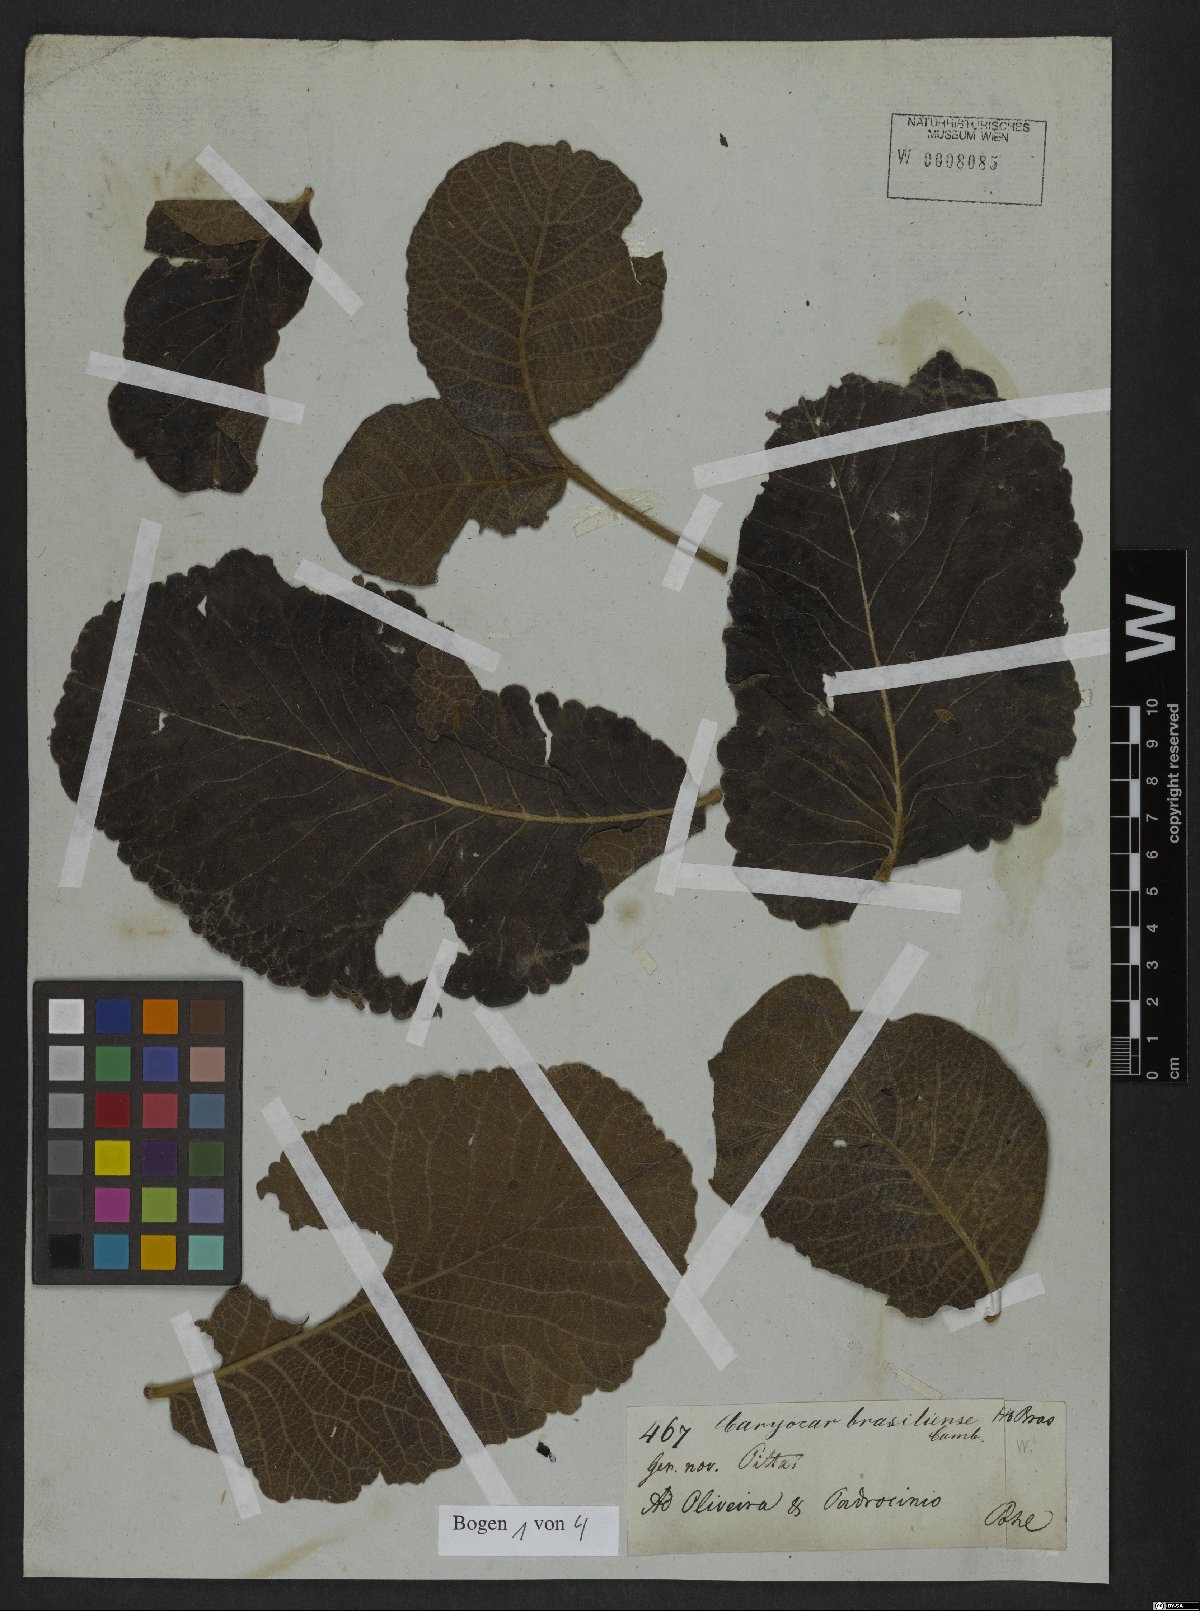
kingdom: Plantae
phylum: Tracheophyta
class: Magnoliopsida
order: Malpighiales
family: Caryocaraceae
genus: Caryocar
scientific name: Caryocar brasiliense
